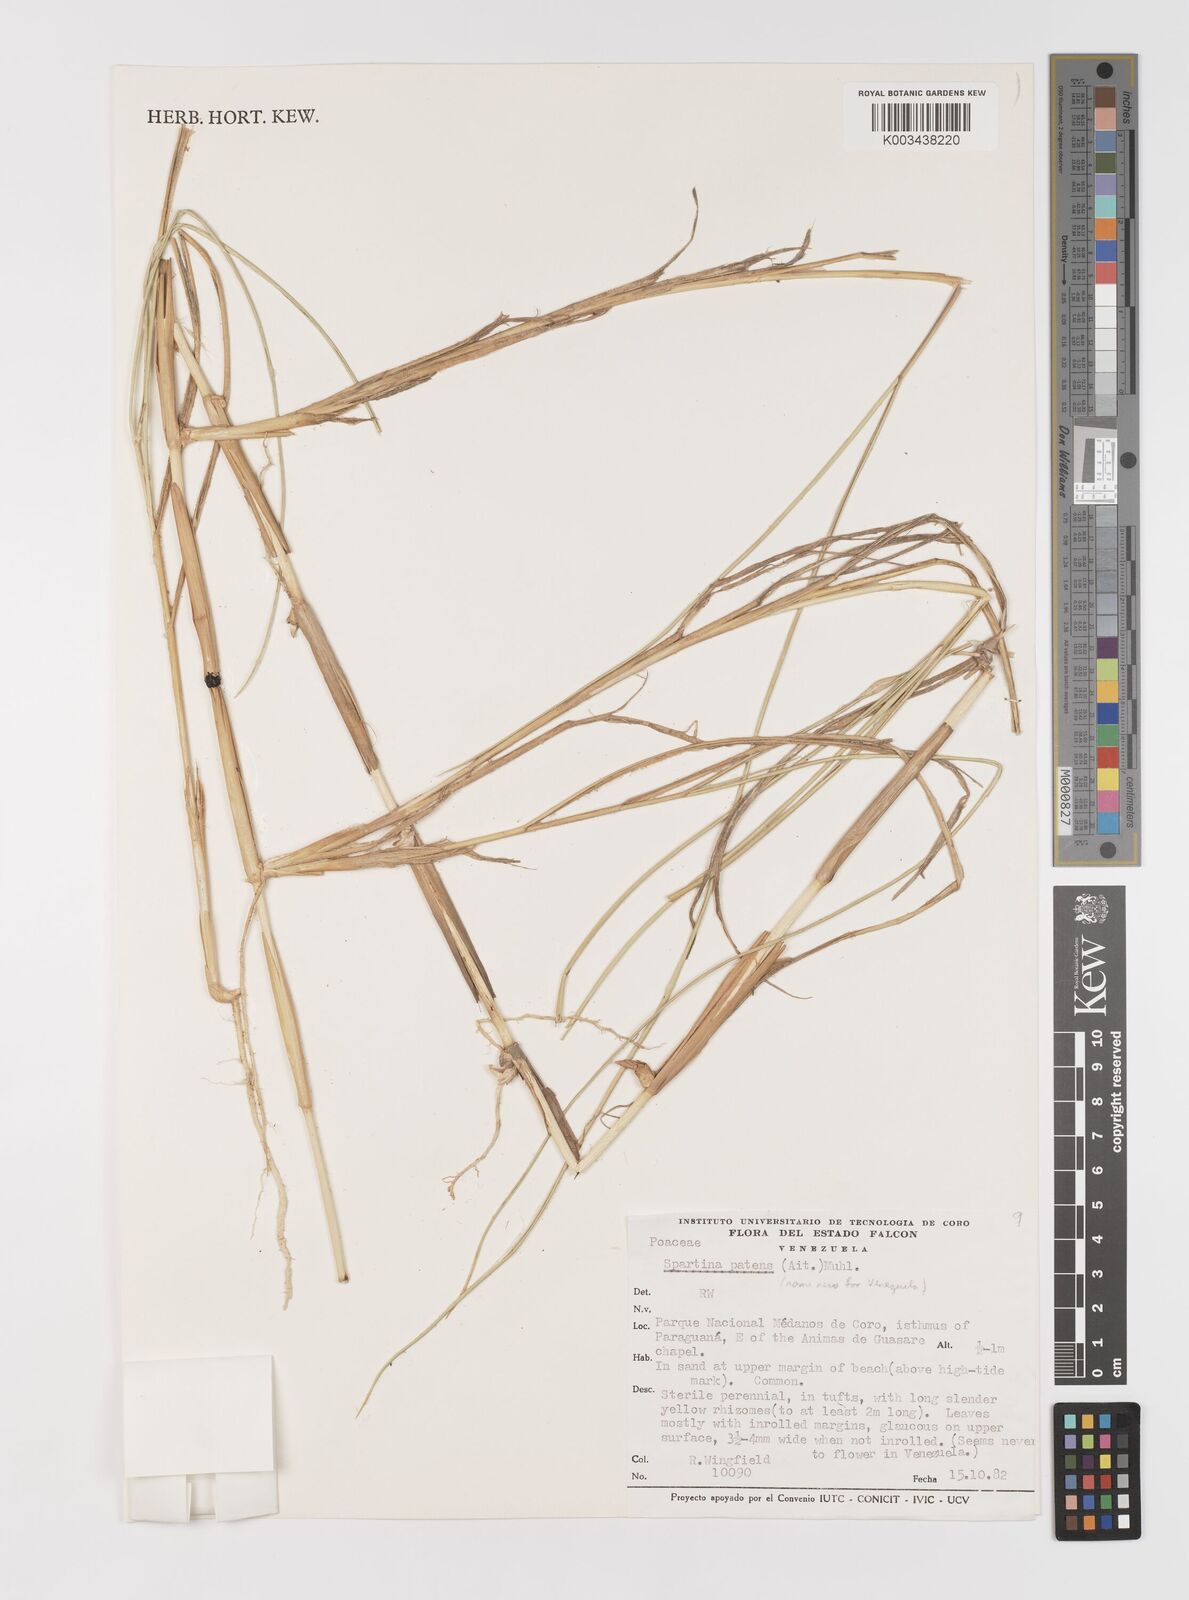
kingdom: Plantae
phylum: Tracheophyta
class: Liliopsida
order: Poales
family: Poaceae
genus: Sporobolus
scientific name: Sporobolus pumilus
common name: Highwater grass
